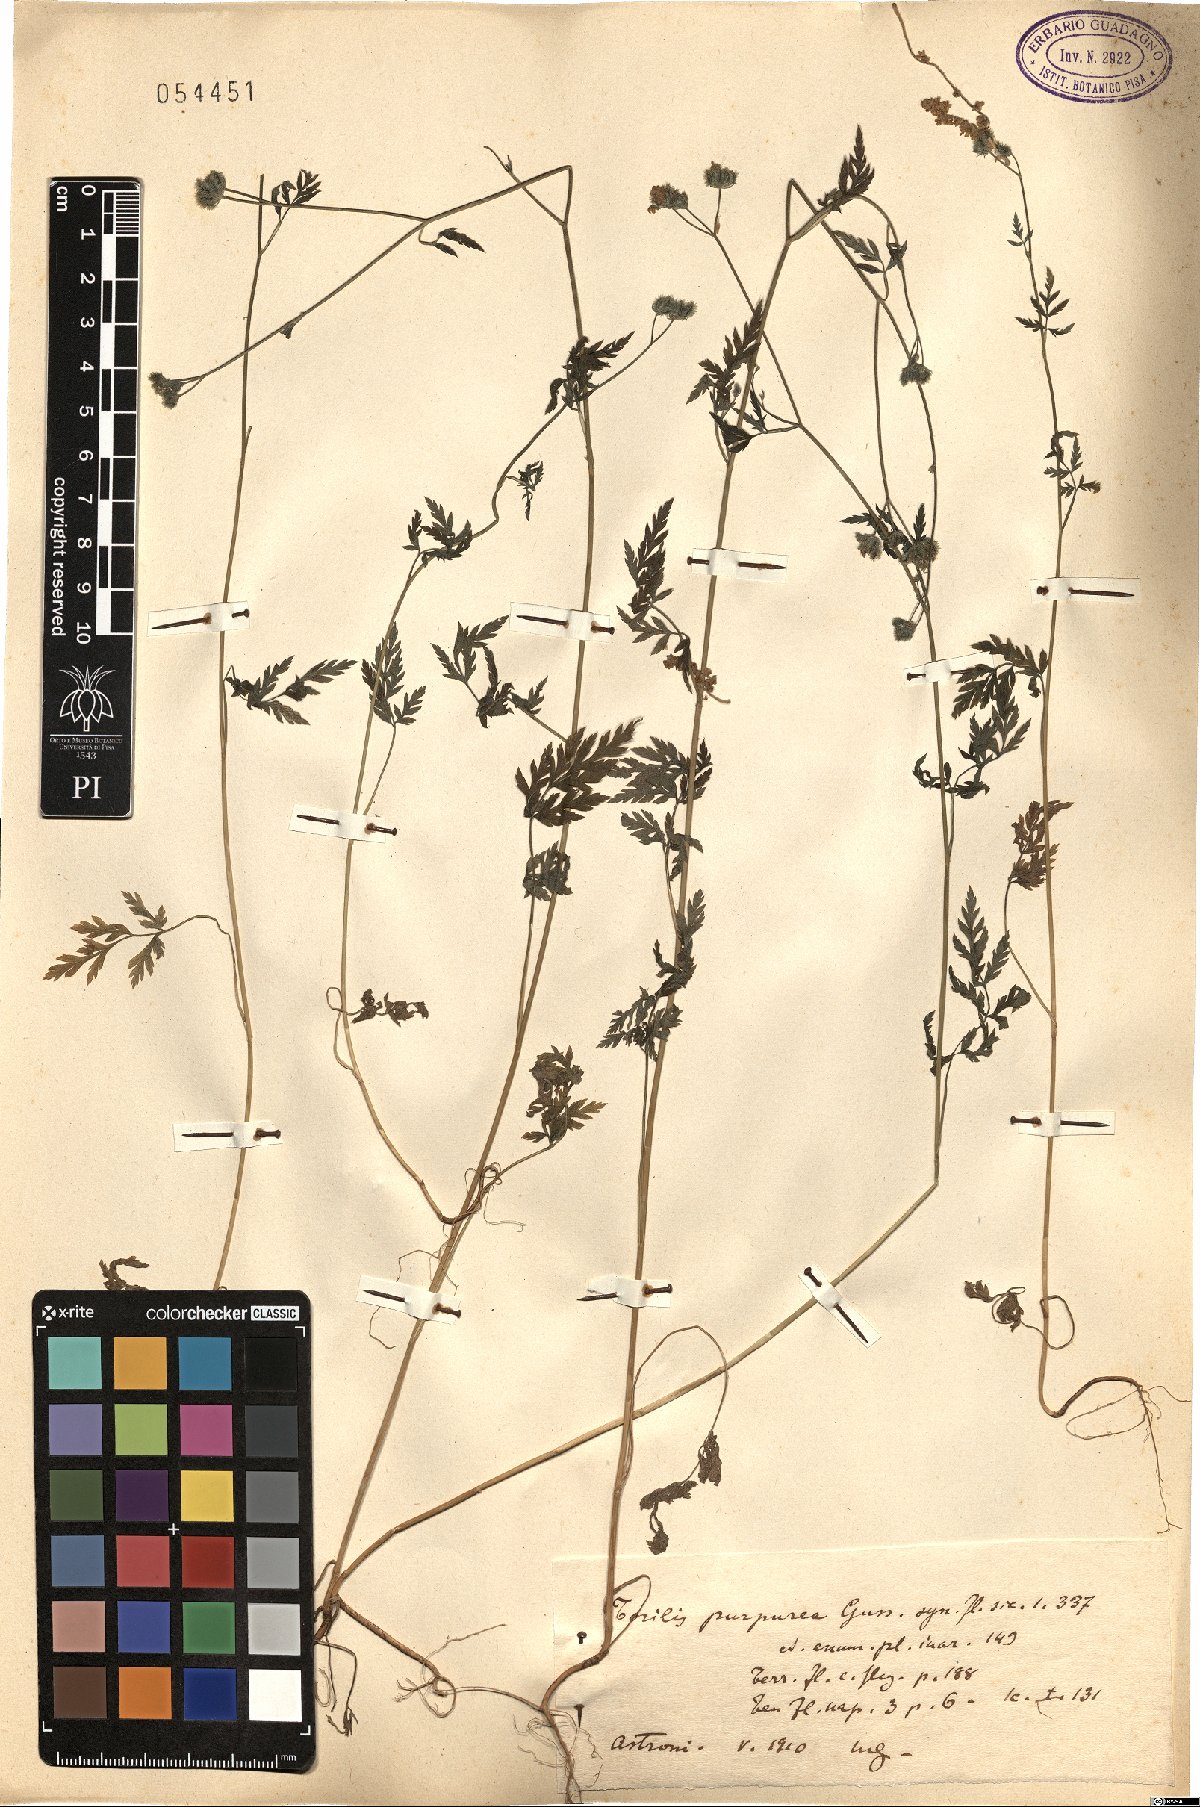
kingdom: Plantae
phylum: Tracheophyta
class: Magnoliopsida
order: Apiales
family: Apiaceae
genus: Torilis
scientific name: Torilis africana
